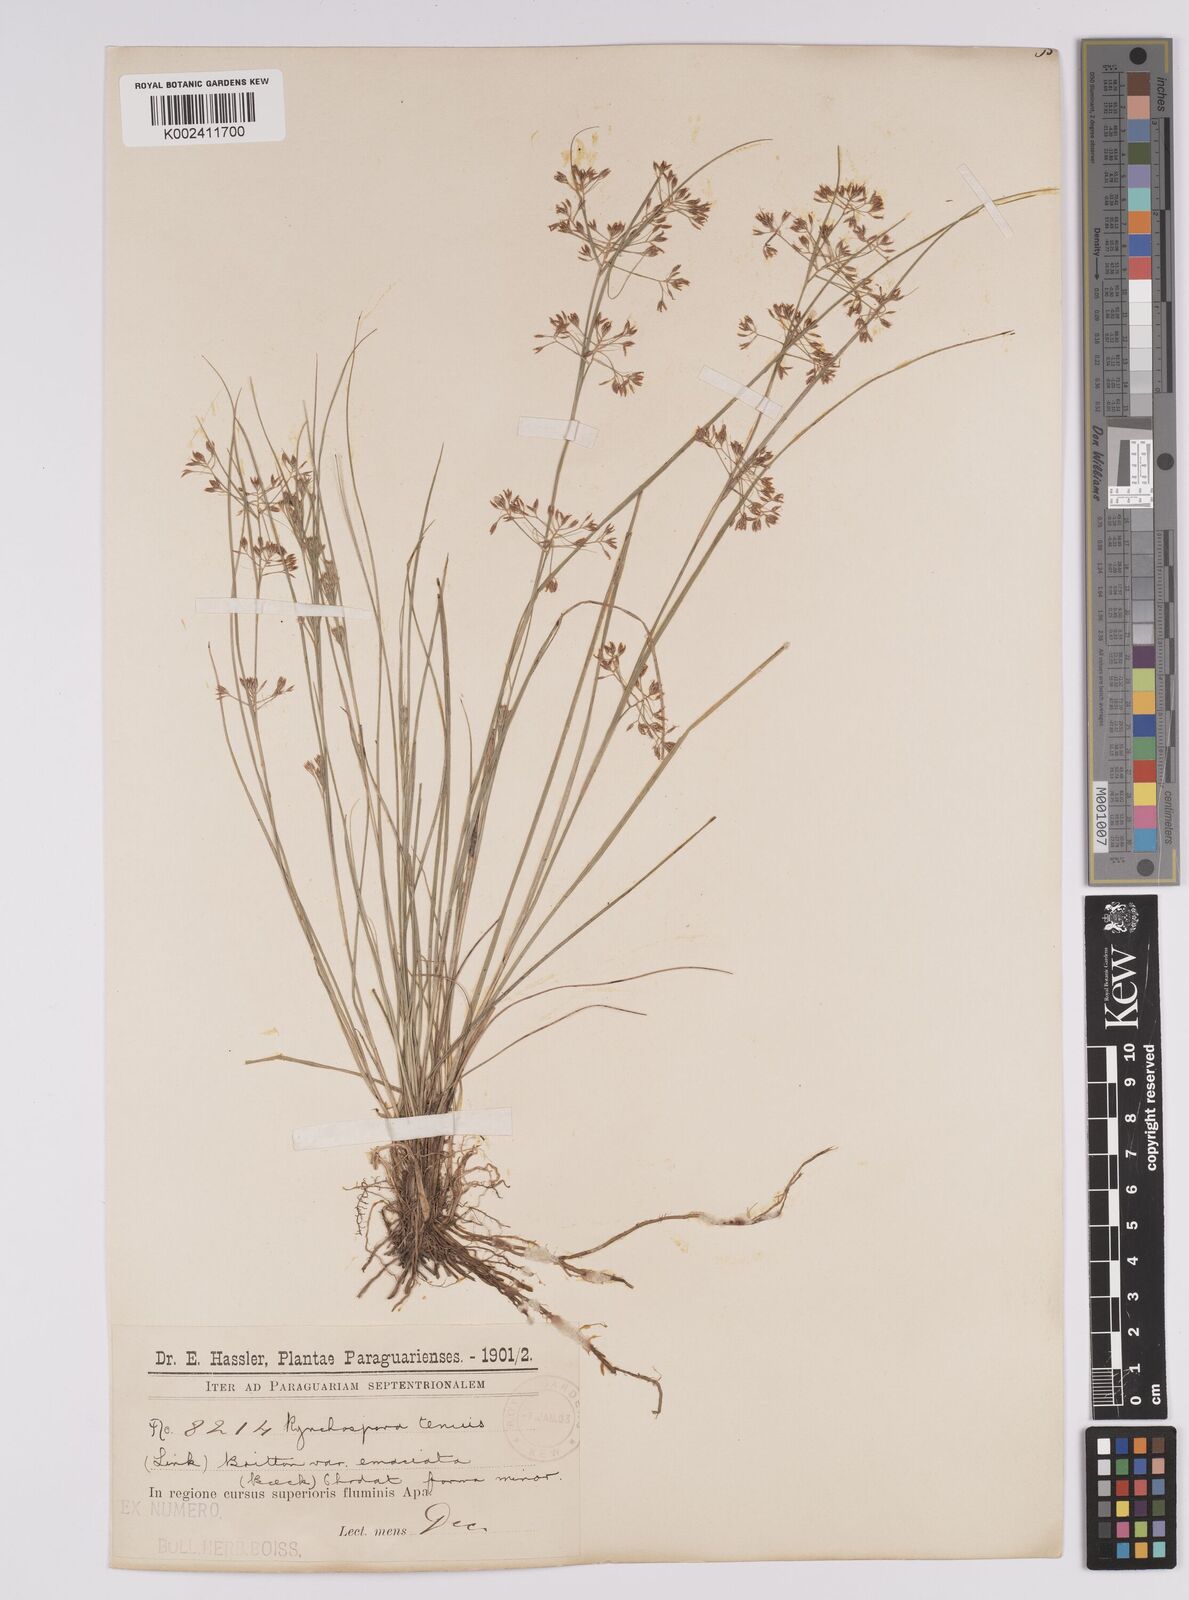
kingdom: Plantae
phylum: Tracheophyta
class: Liliopsida
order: Poales
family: Cyperaceae
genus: Rhynchospora
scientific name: Rhynchospora tenuis
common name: Quill beaksedge
